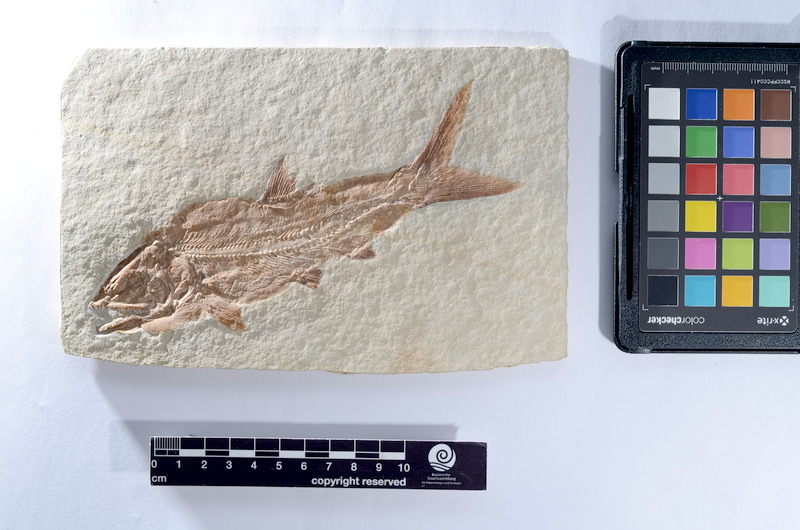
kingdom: Animalia
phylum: Chordata
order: Amiiformes
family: Caturidae
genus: Caturus
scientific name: Caturus furcatus
